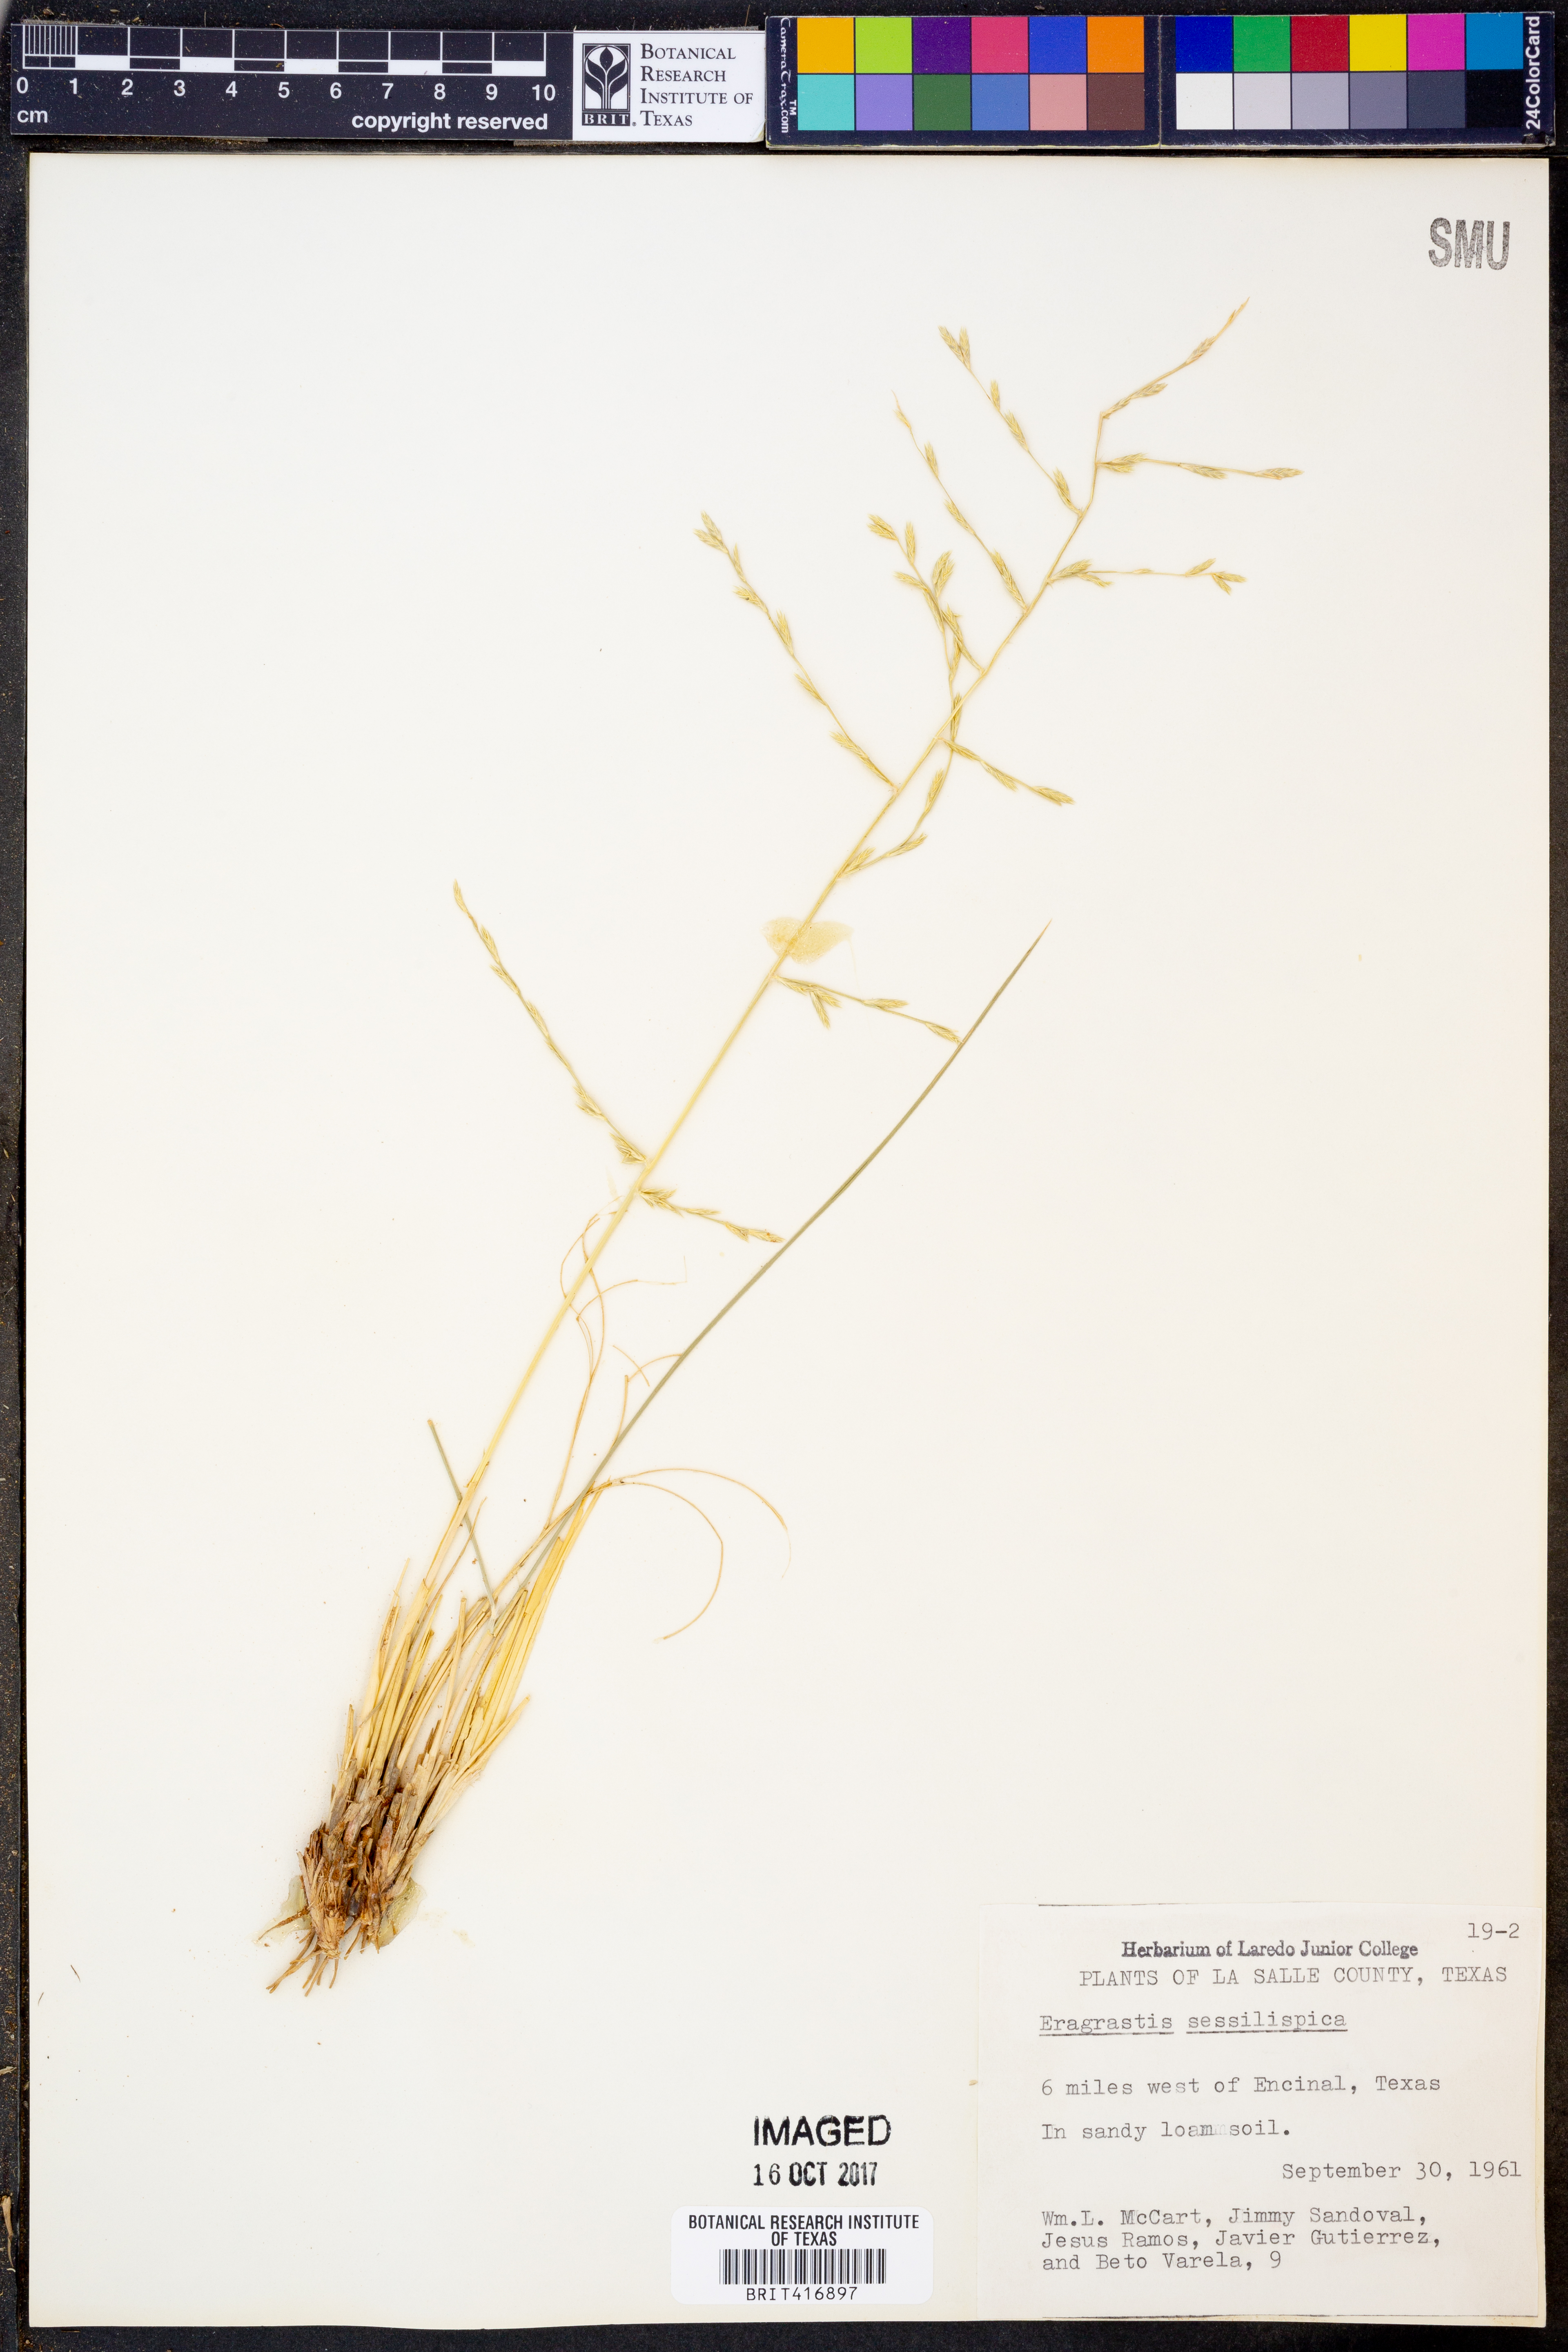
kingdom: Plantae
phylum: Tracheophyta
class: Liliopsida
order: Poales
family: Poaceae
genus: Eragrostis
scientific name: Eragrostis sessilispica
